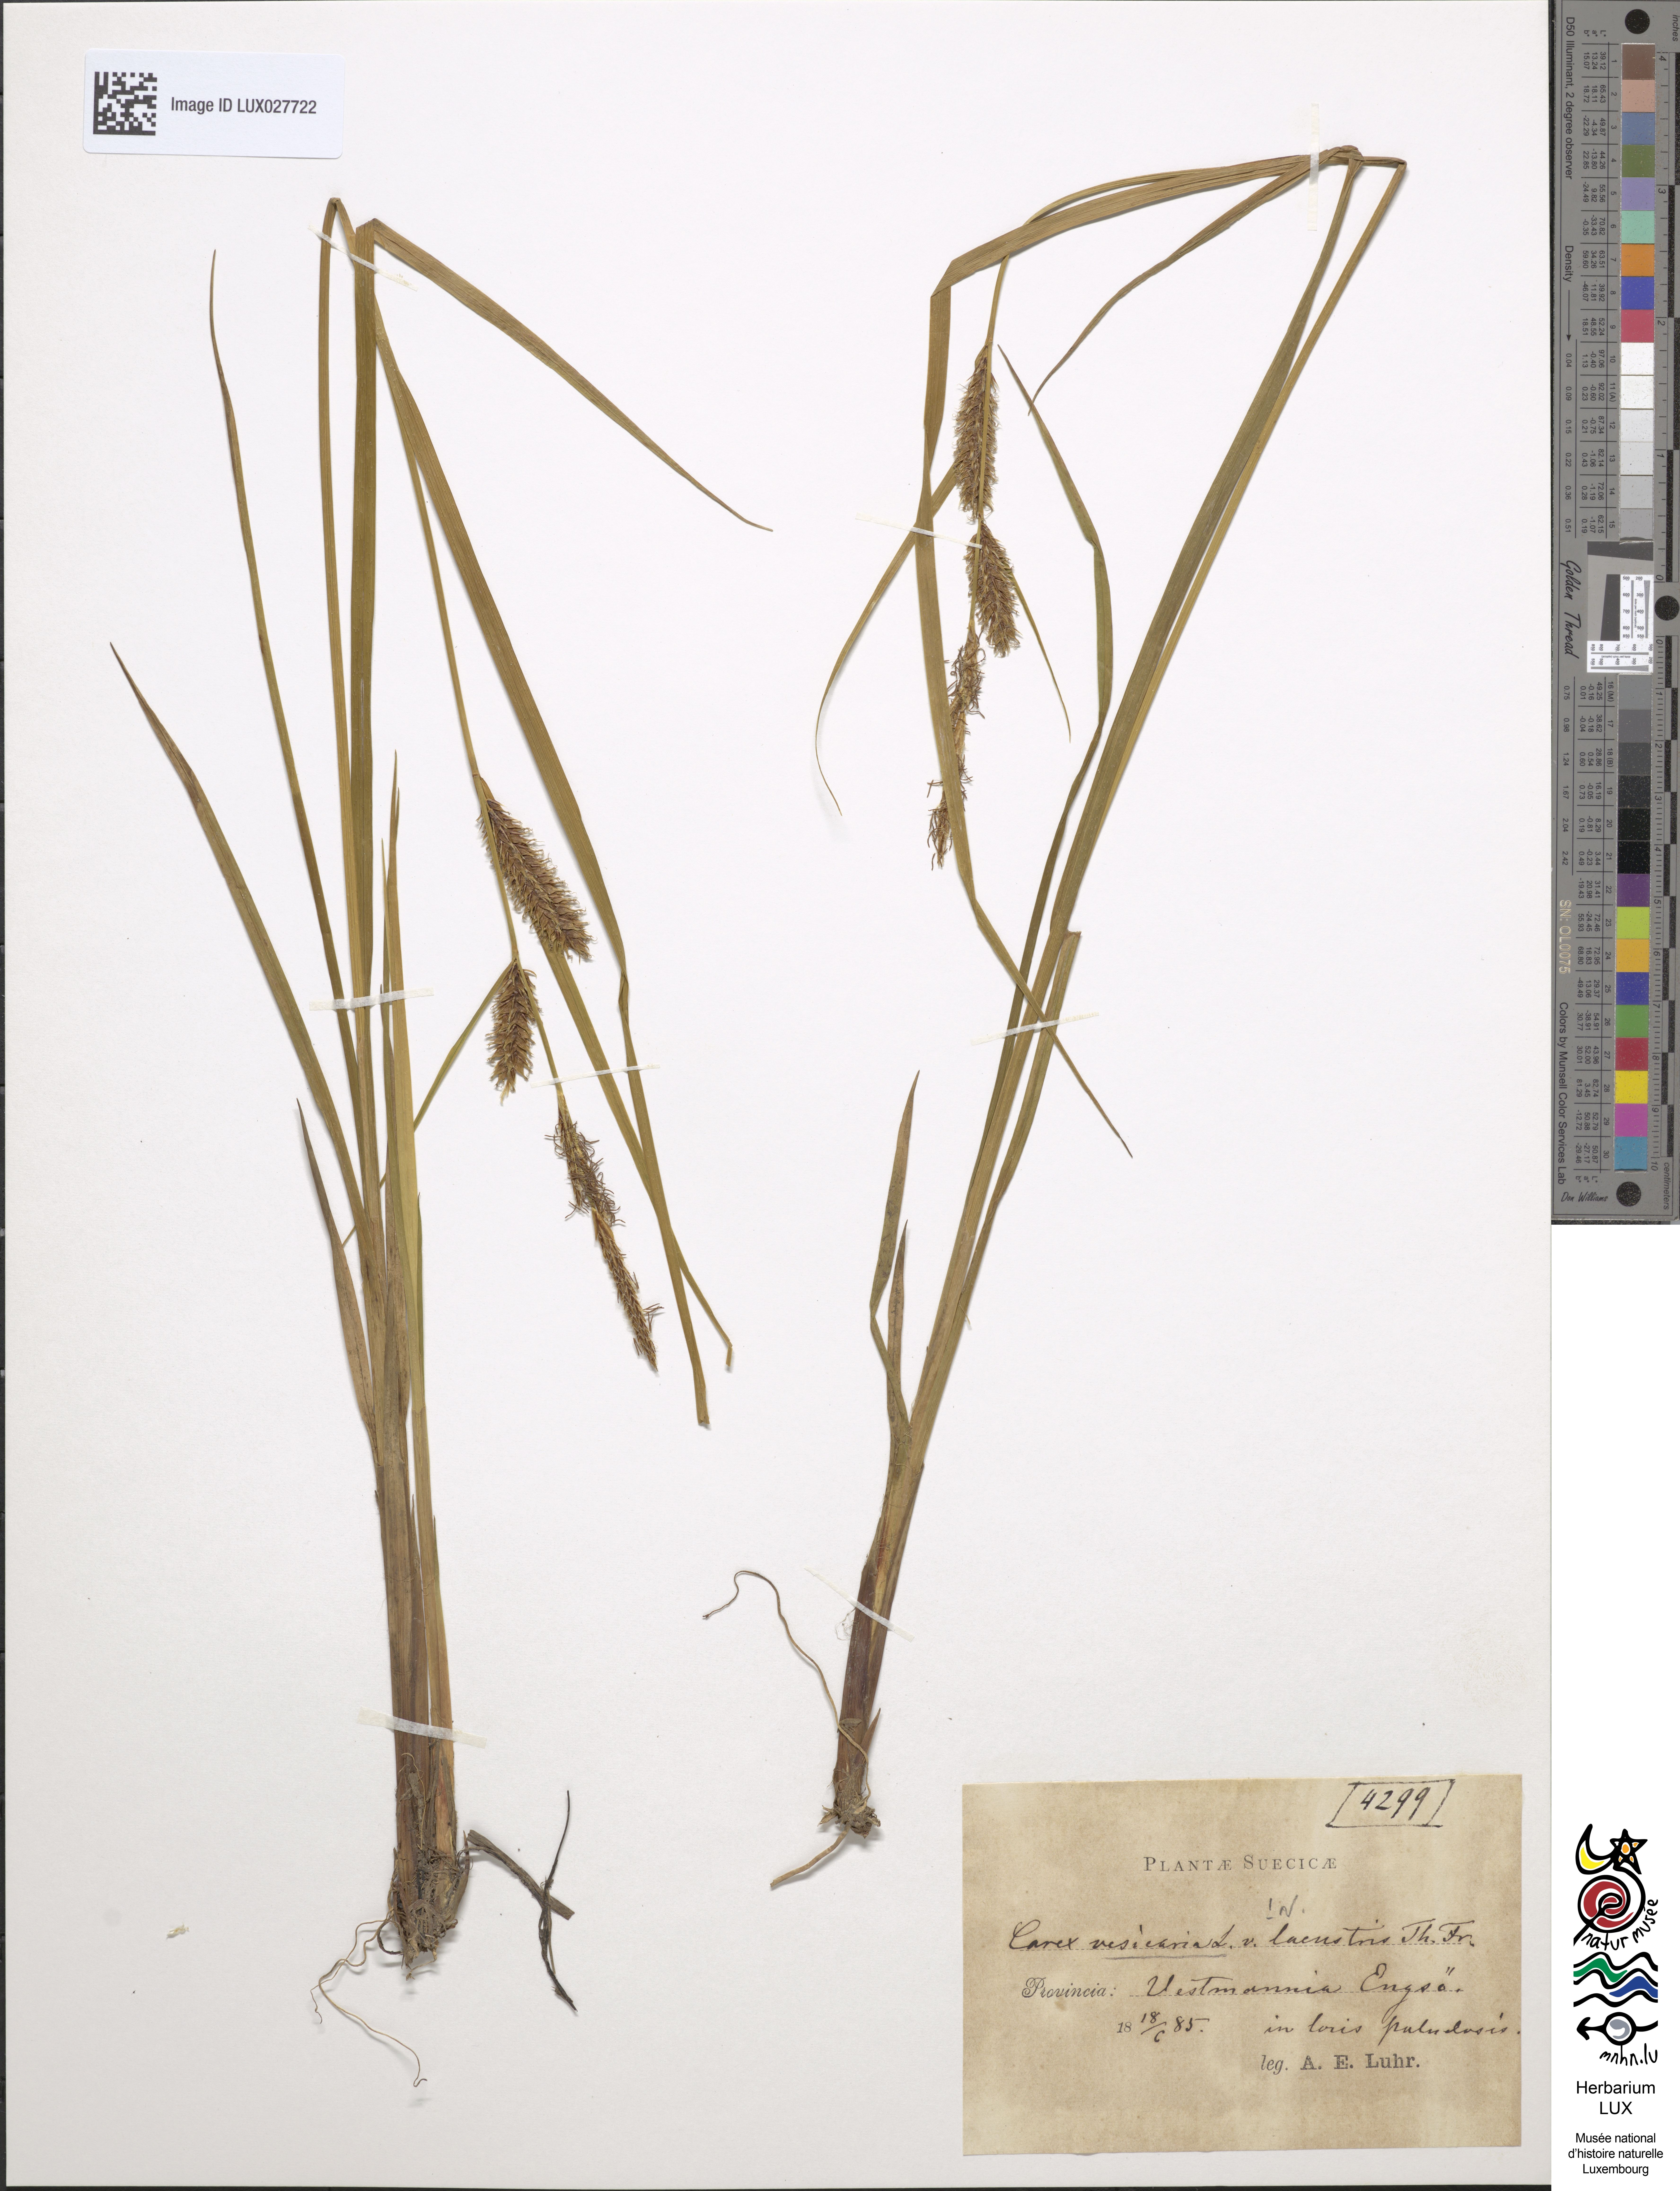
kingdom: Plantae
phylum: Tracheophyta
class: Liliopsida
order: Poales
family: Cyperaceae
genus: Carex
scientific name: Carex utriculata
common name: Beaked sedge
